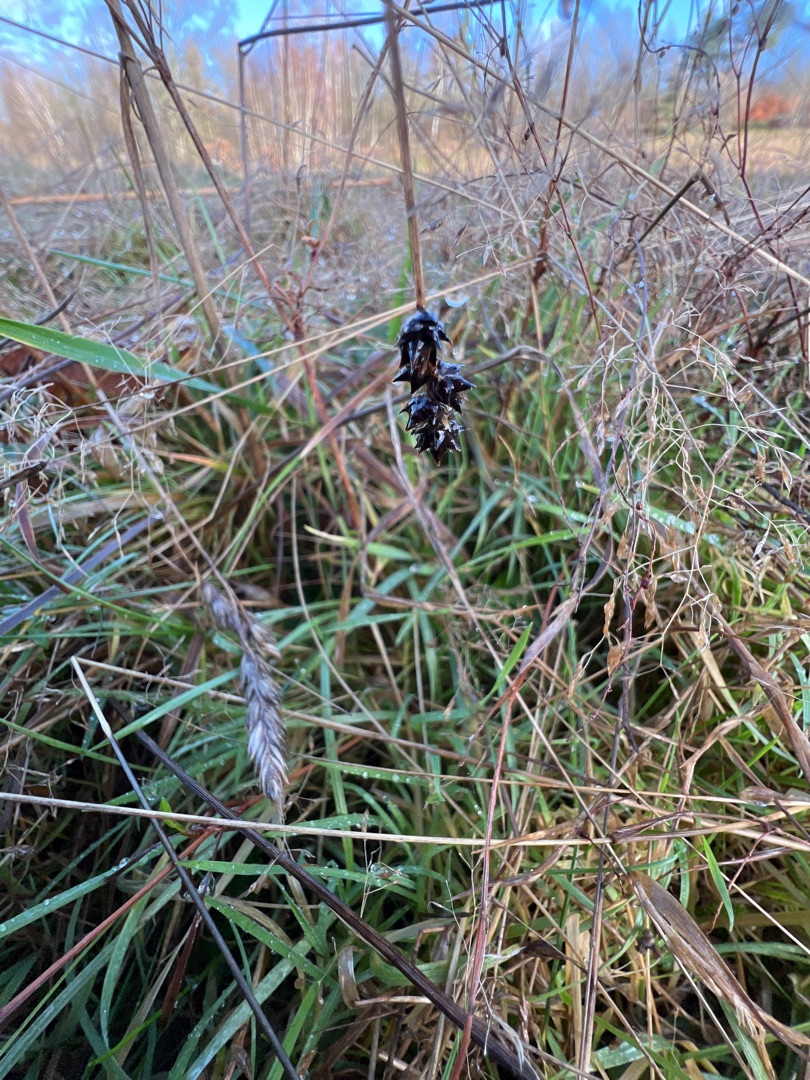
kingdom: Plantae
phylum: Tracheophyta
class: Liliopsida
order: Poales
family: Cyperaceae
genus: Carex
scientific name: Carex pairae
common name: Pigget star
